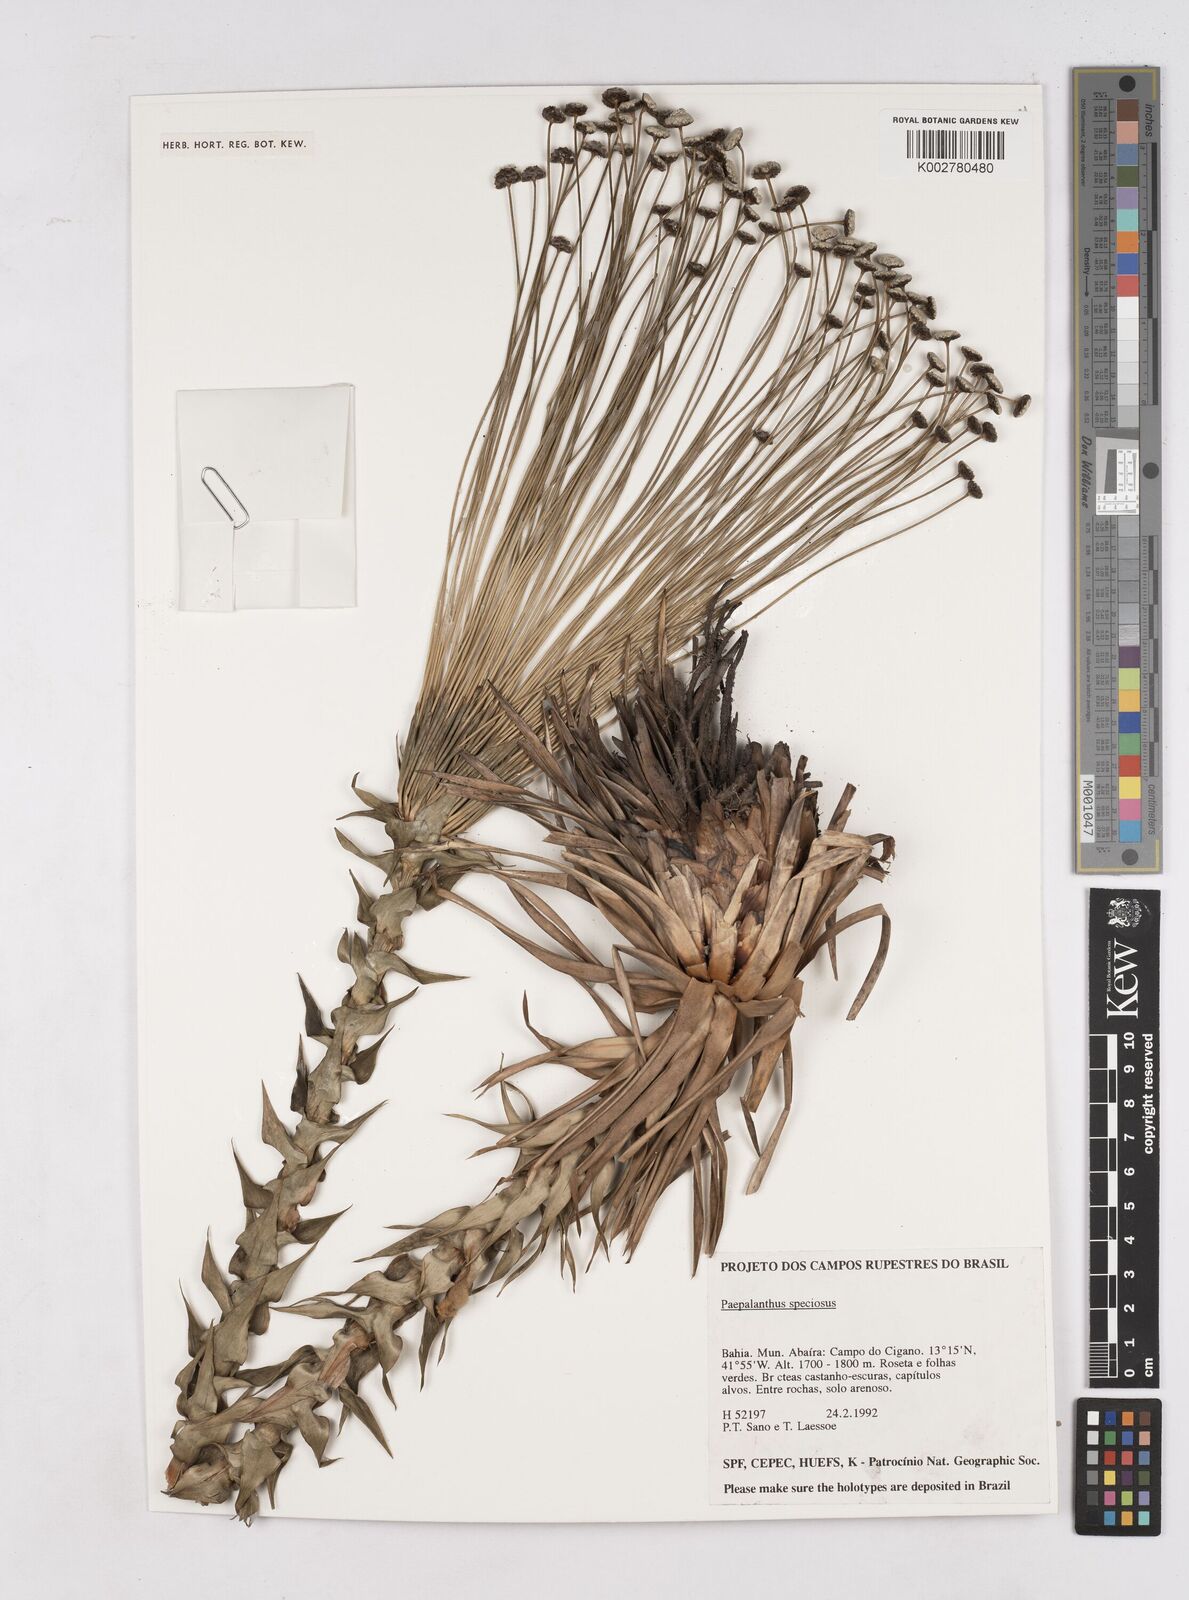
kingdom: Plantae
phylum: Tracheophyta
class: Liliopsida
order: Poales
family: Eriocaulaceae
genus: Paepalanthus
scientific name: Paepalanthus chiquitensis
